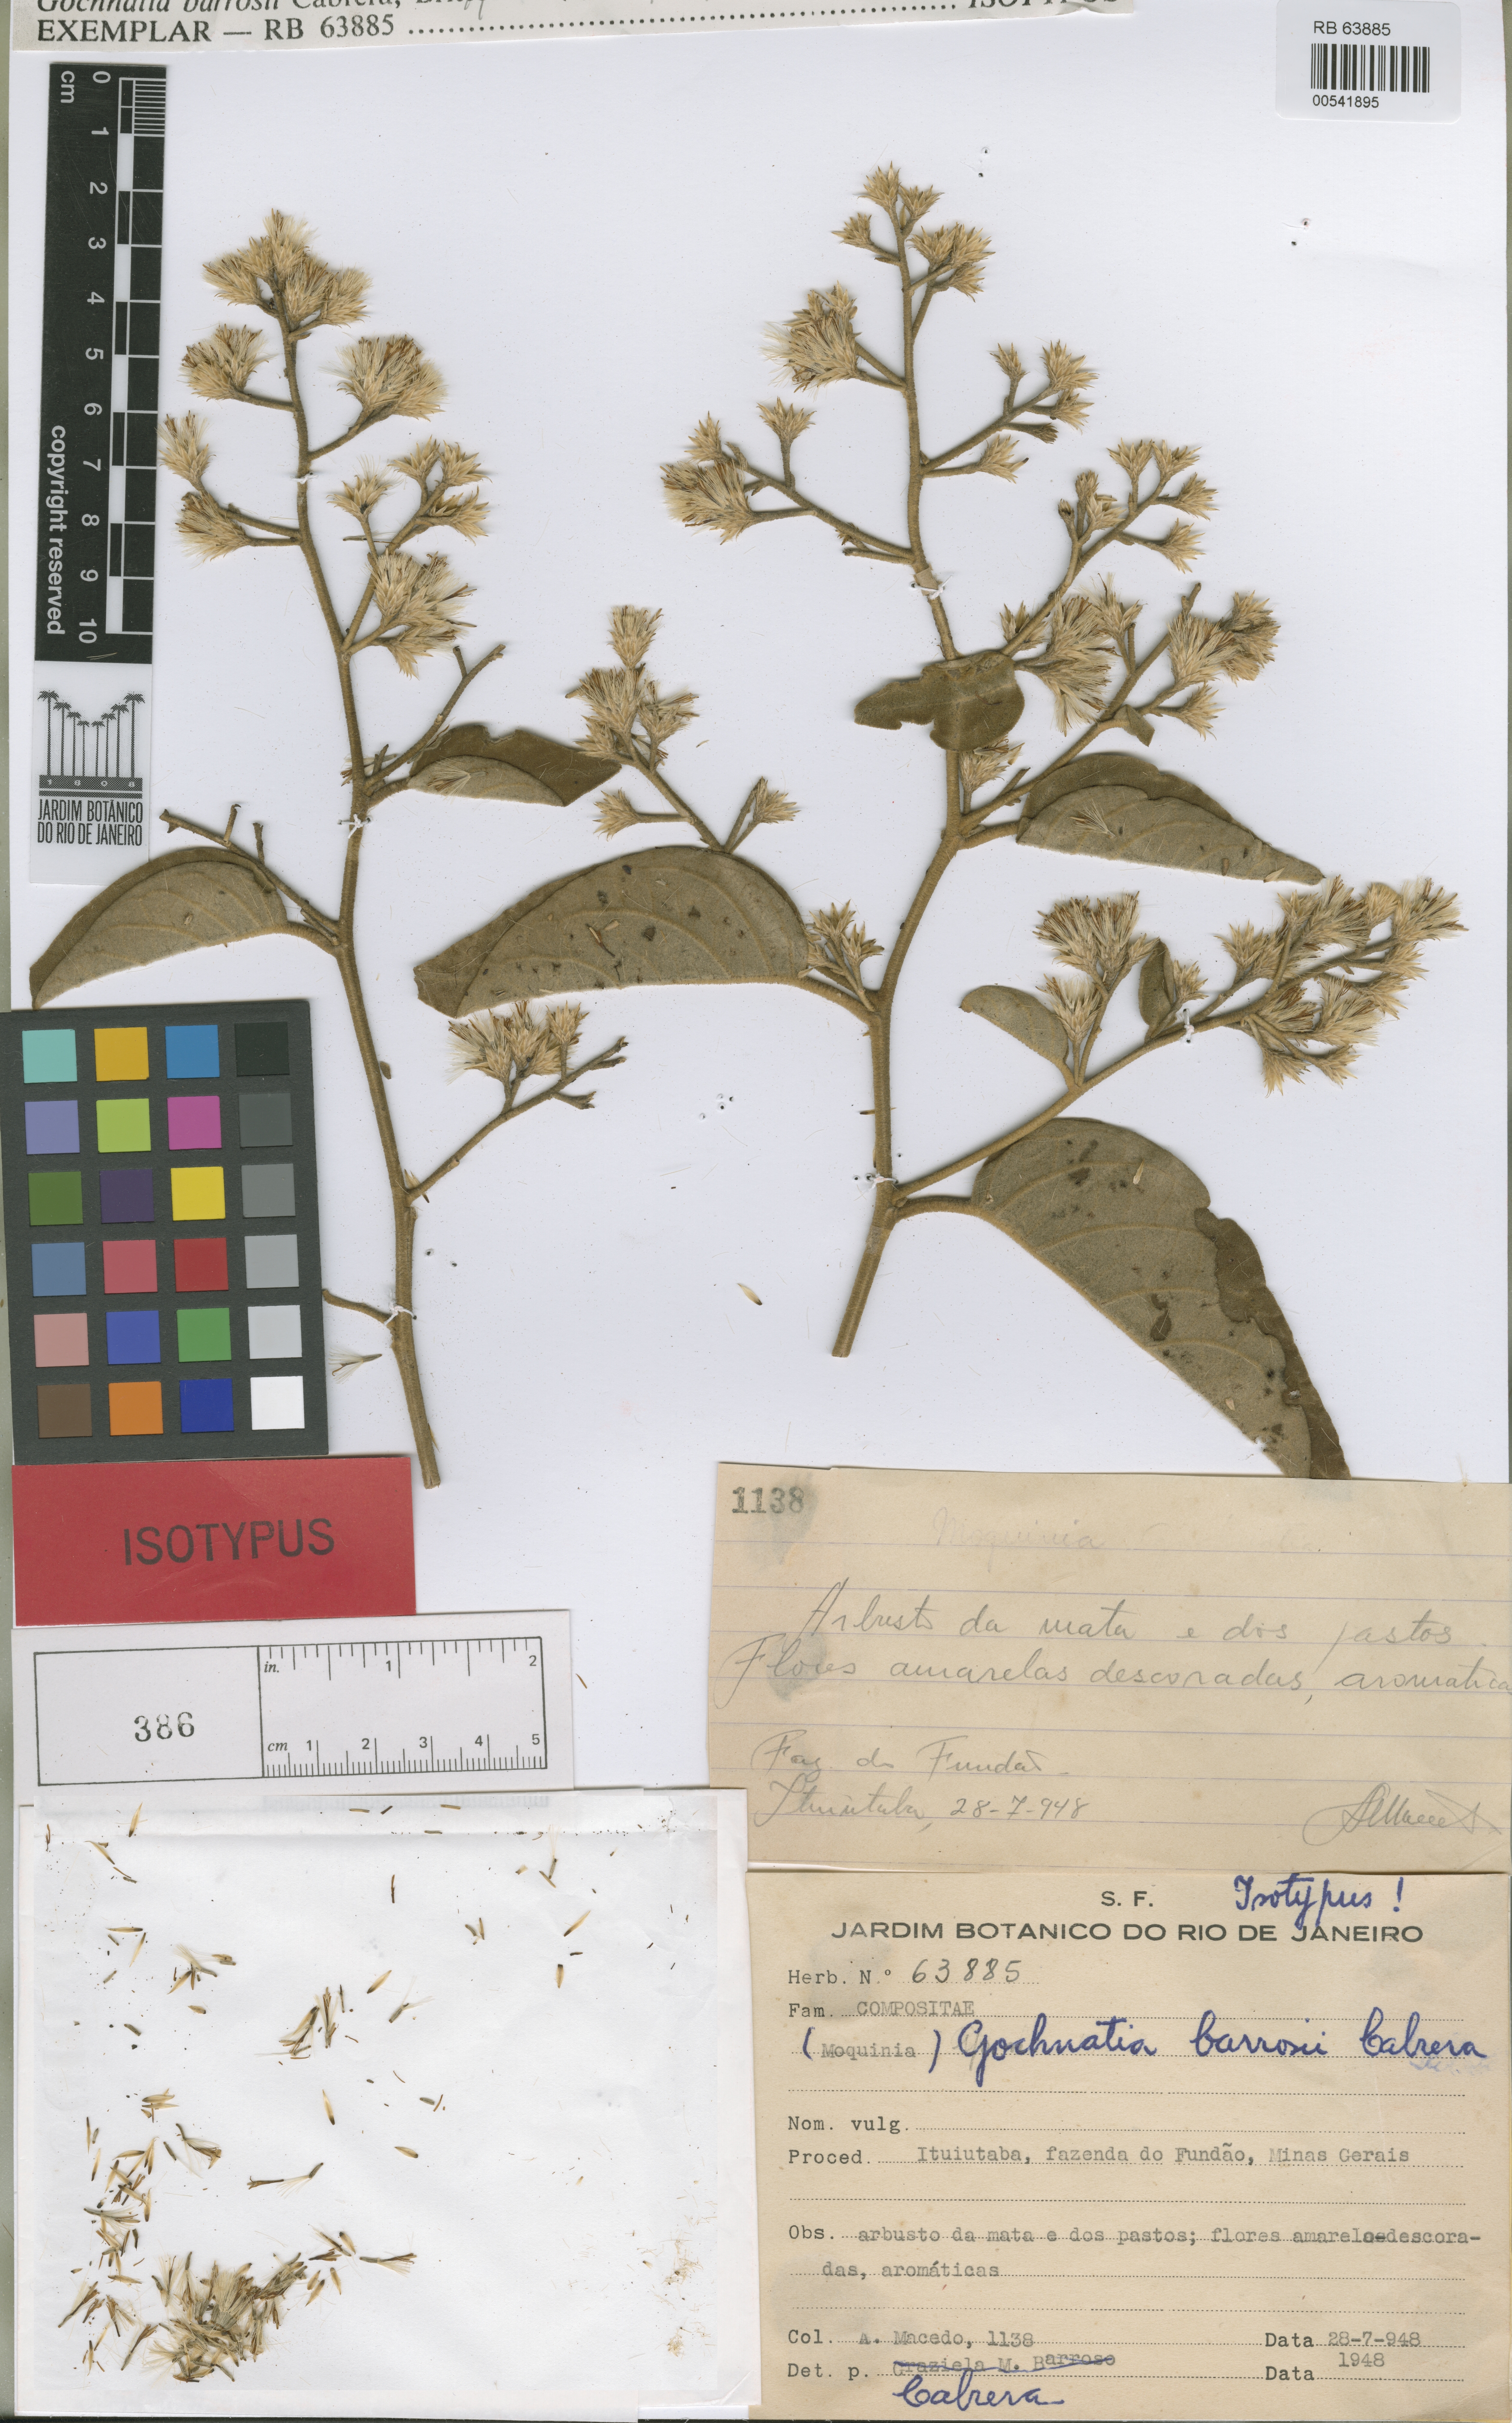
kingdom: Plantae
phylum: Tracheophyta
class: Magnoliopsida
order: Asterales
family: Asteraceae
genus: Moquiniastrum
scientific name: Moquiniastrum barrosoae
